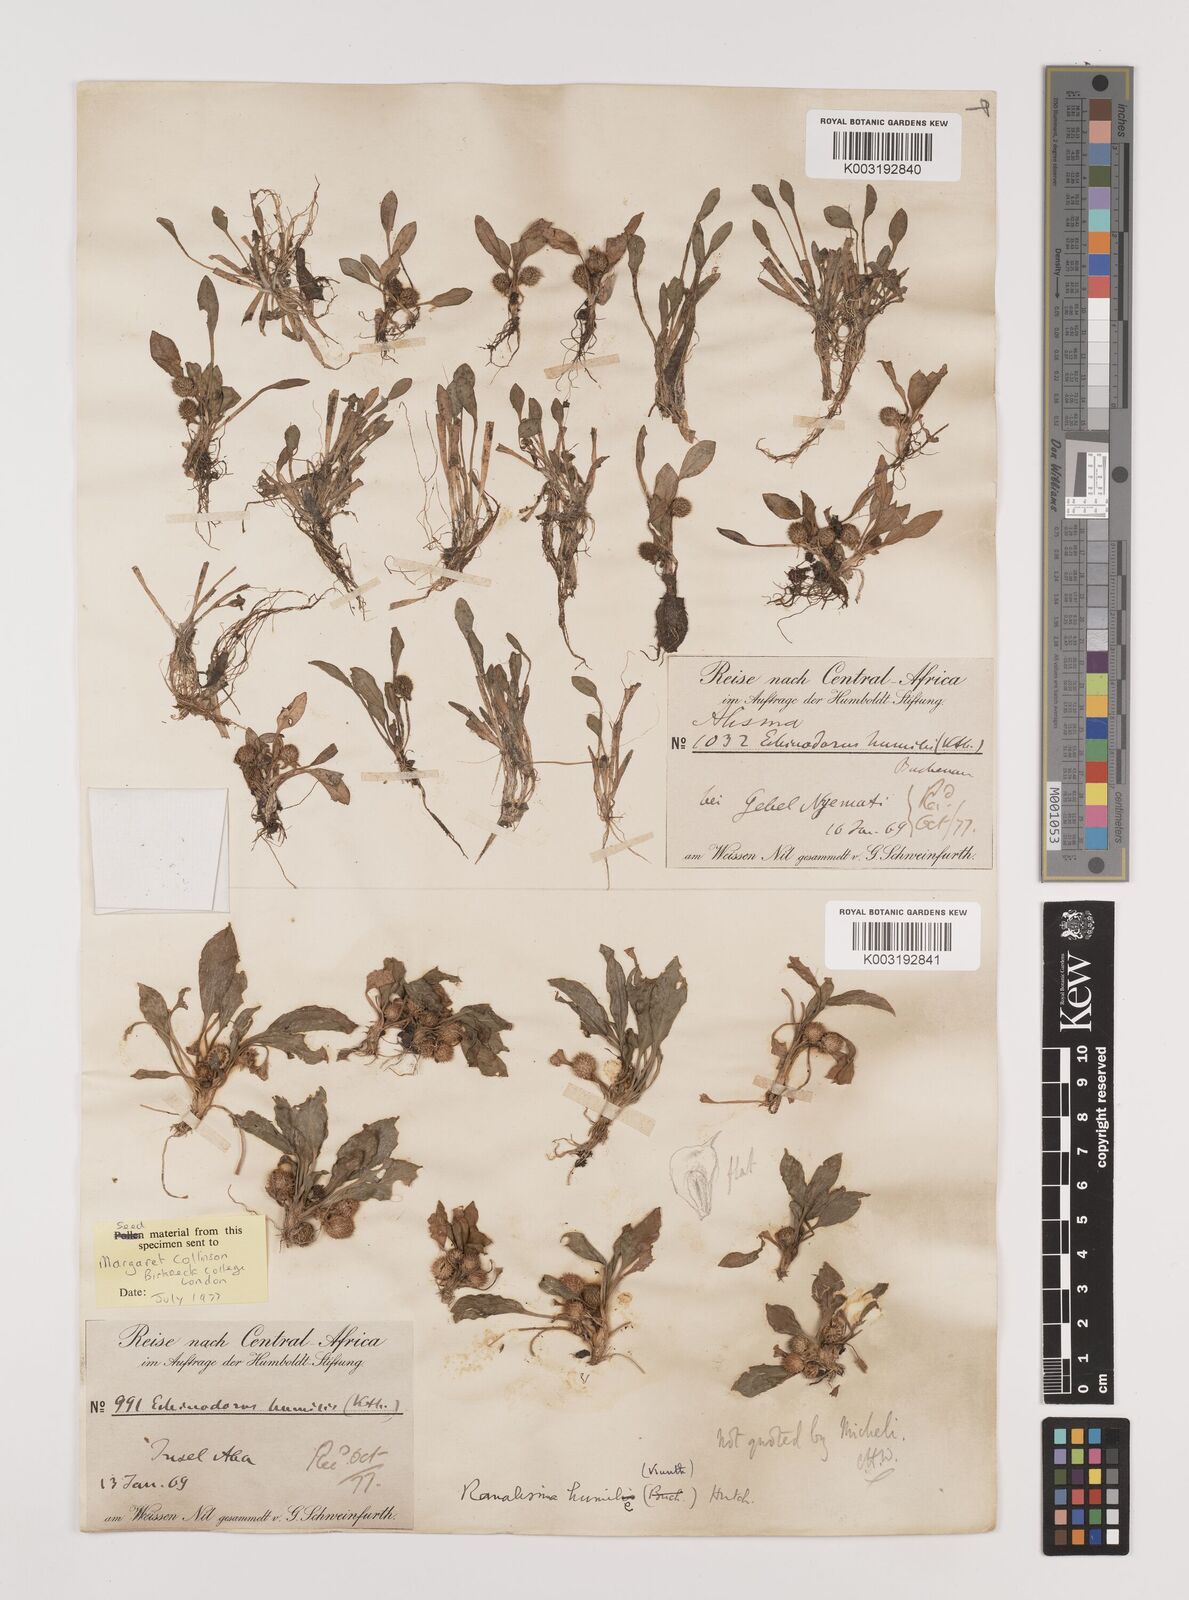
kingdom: Plantae
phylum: Tracheophyta
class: Liliopsida
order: Alismatales
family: Alismataceae
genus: Ranalisma
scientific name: Ranalisma humile
